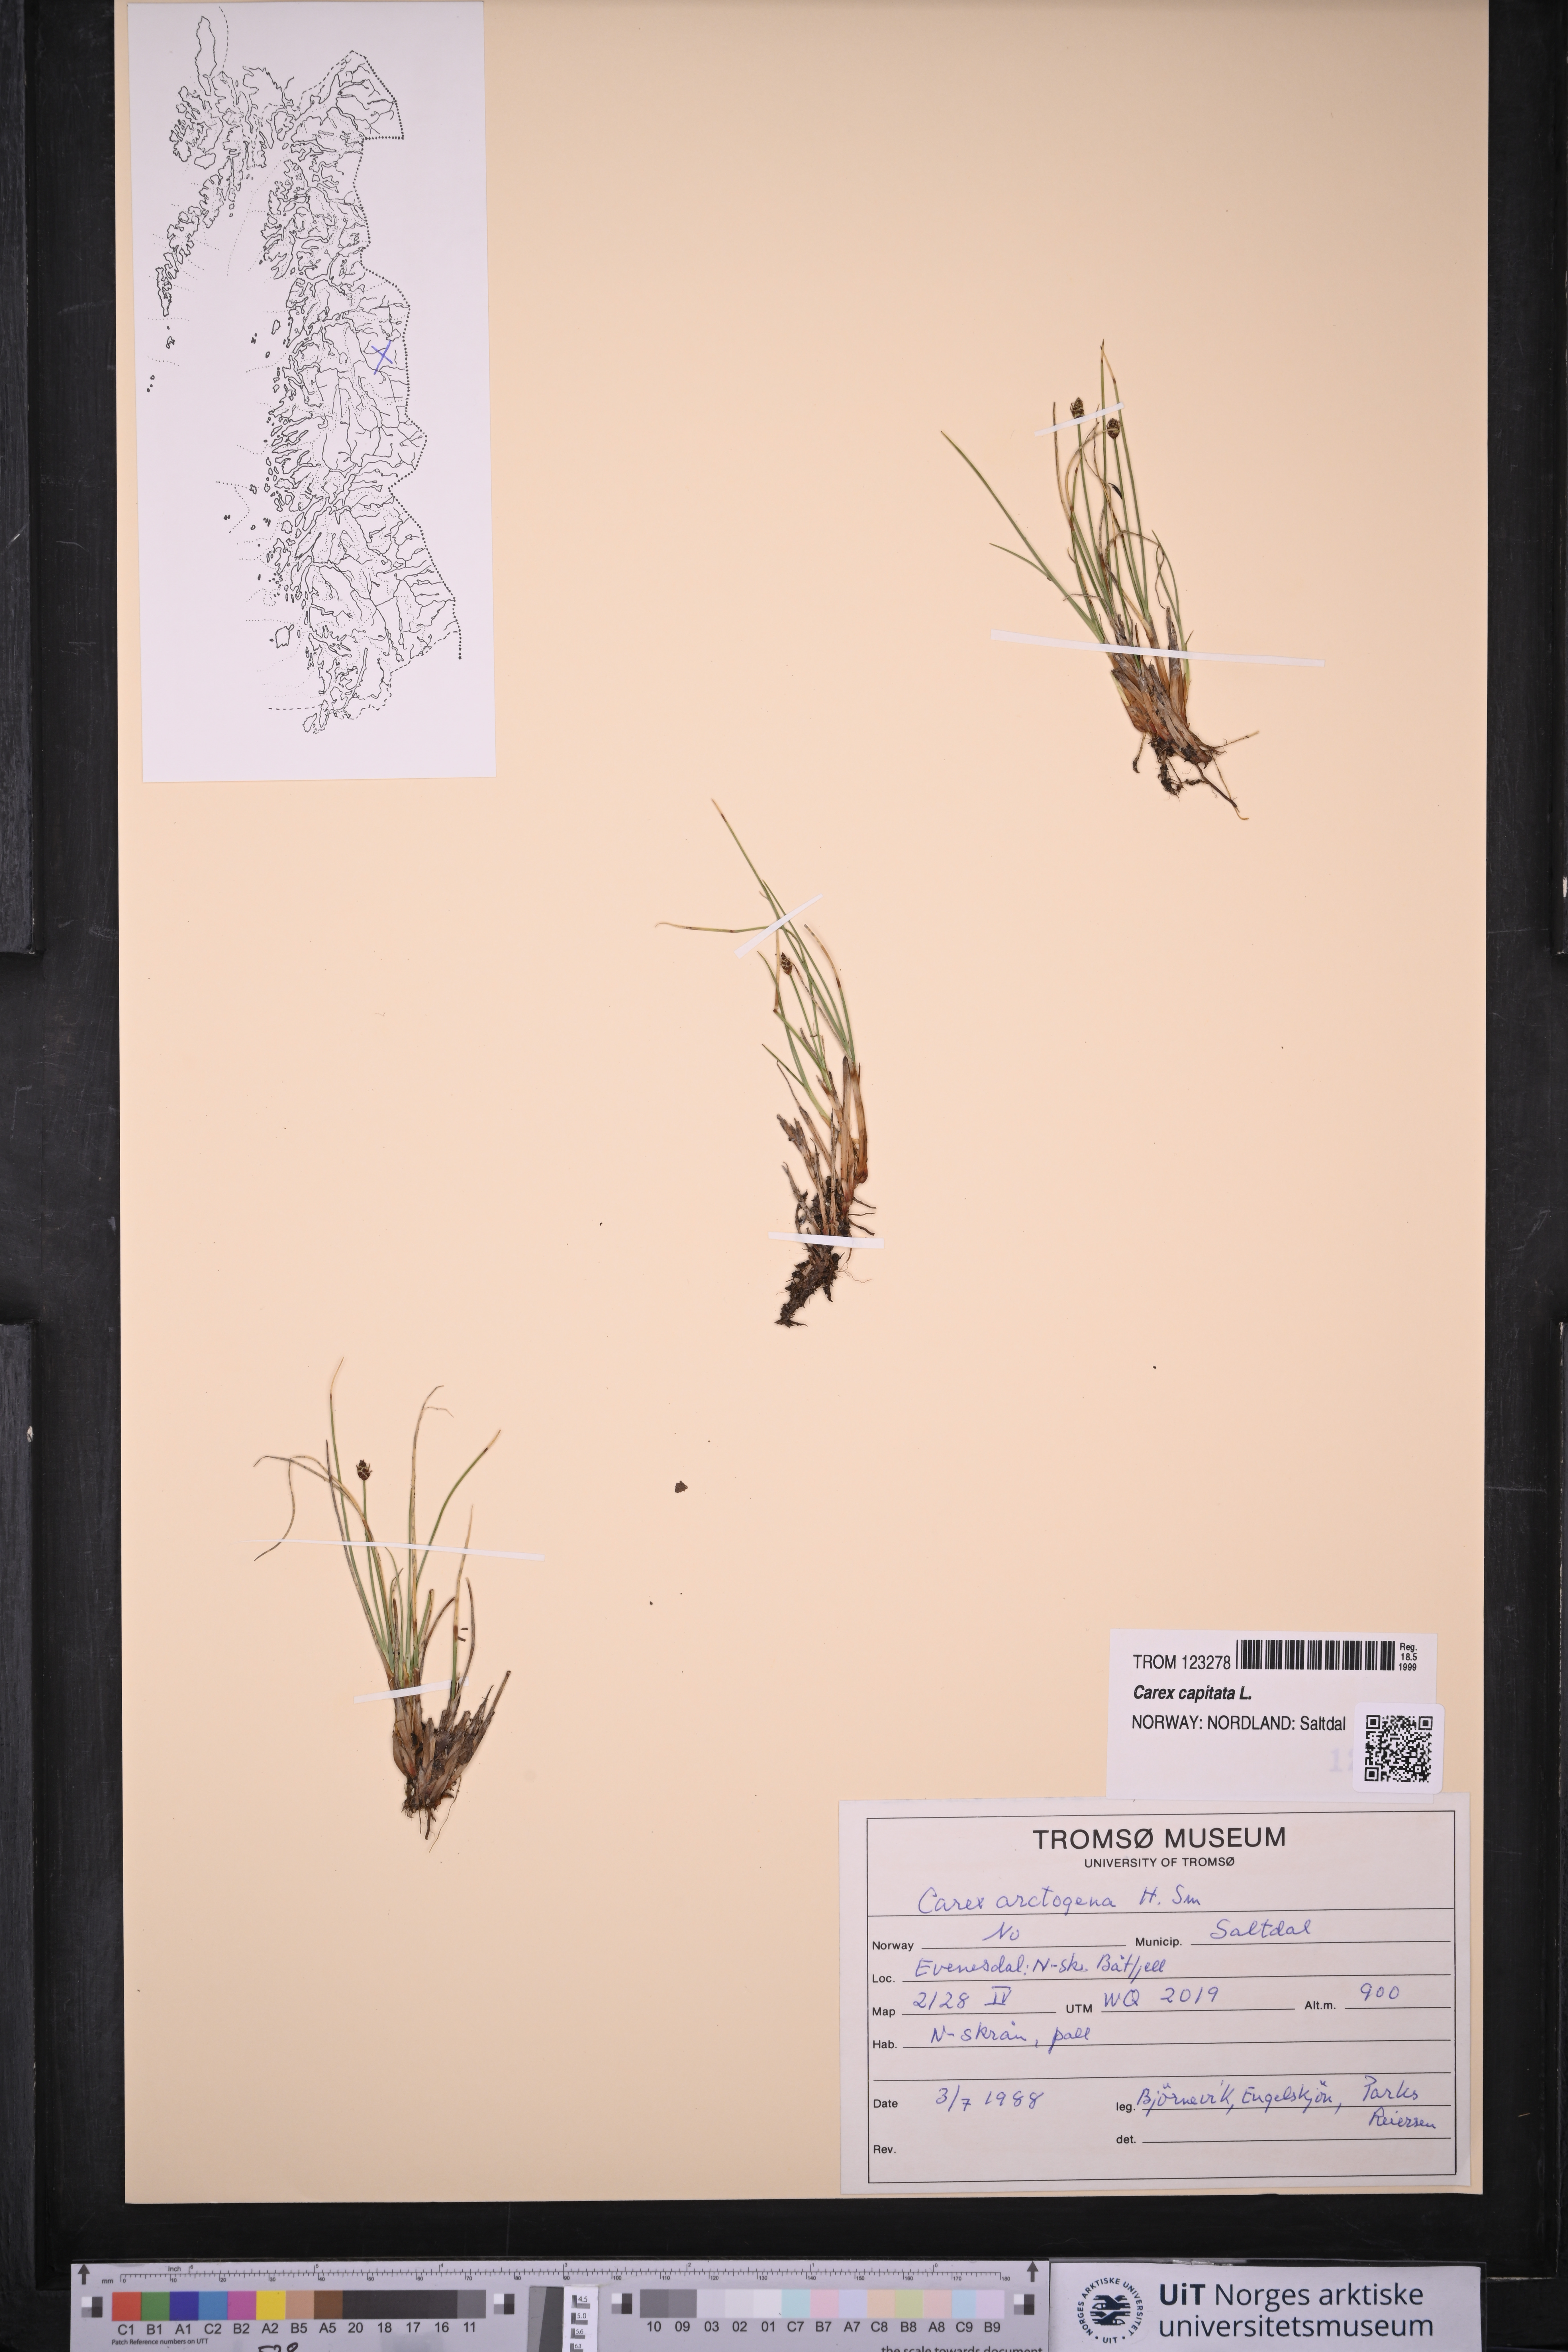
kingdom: Plantae
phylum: Tracheophyta
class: Liliopsida
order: Poales
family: Cyperaceae
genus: Carex
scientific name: Carex capitata
